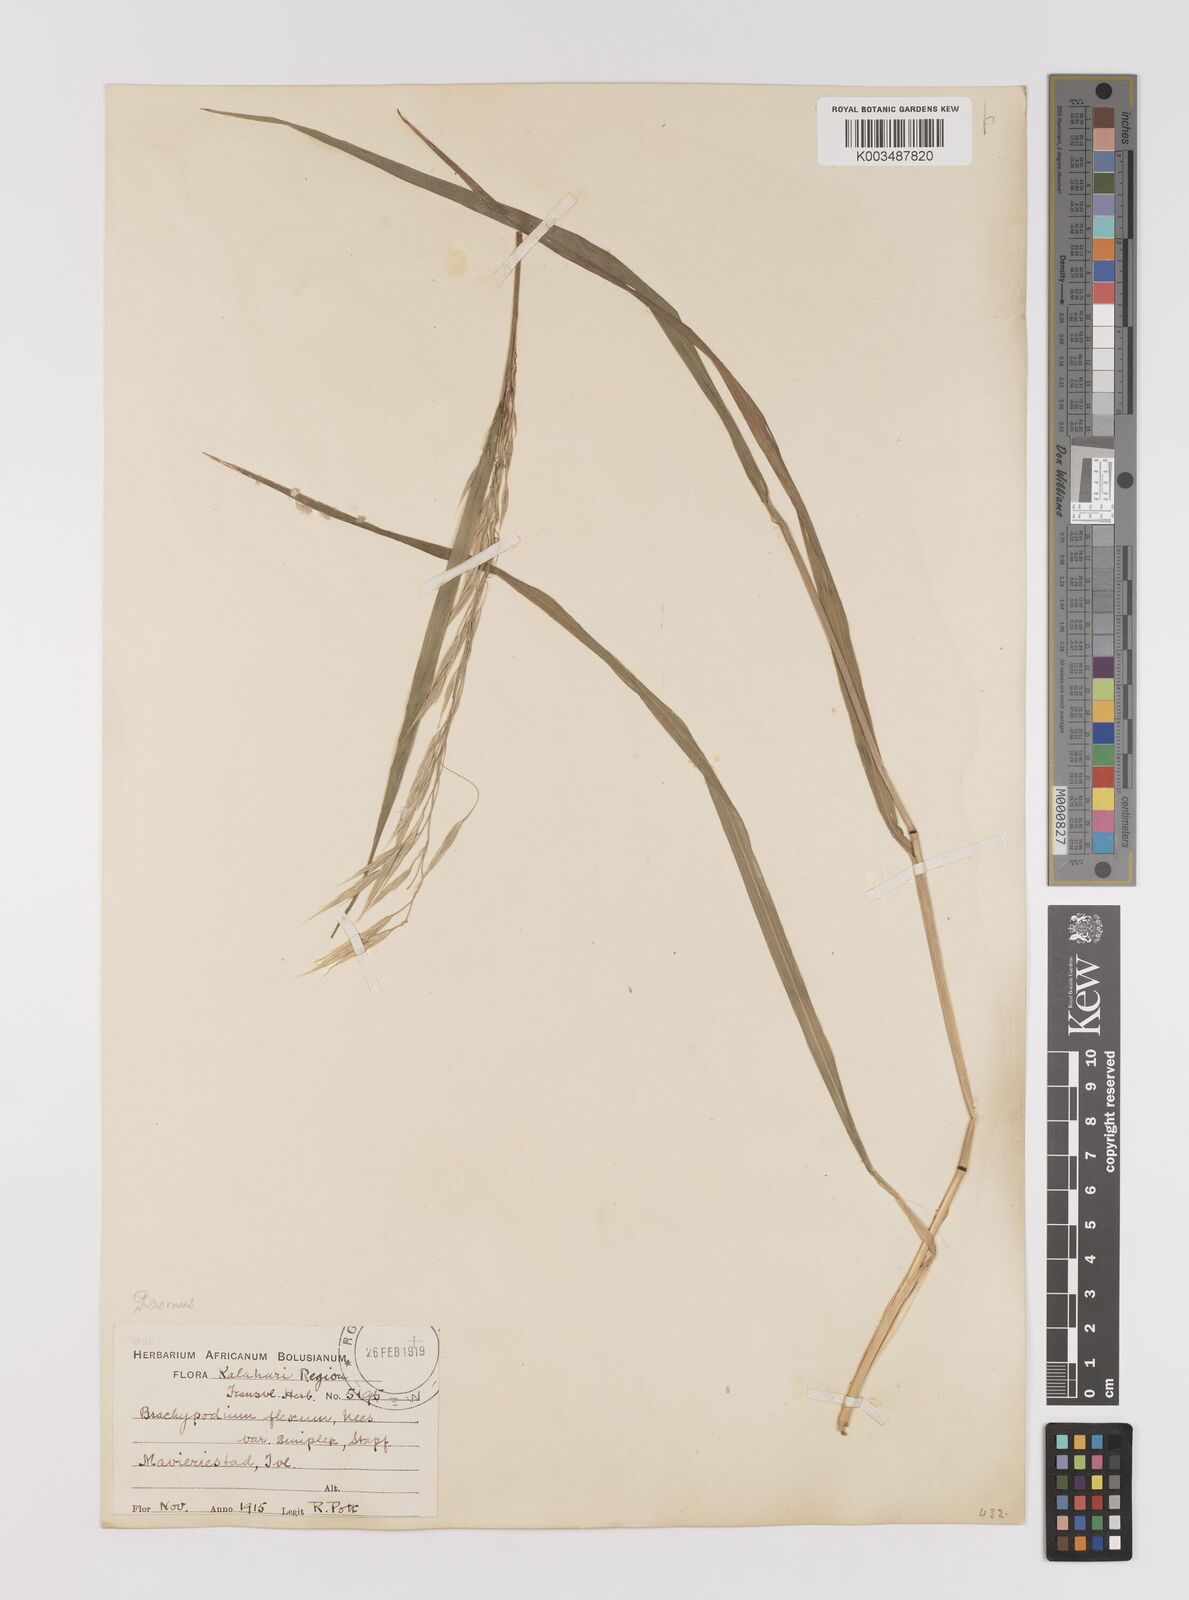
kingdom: Plantae
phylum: Tracheophyta
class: Liliopsida
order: Poales
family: Poaceae
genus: Bromus
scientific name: Bromus
